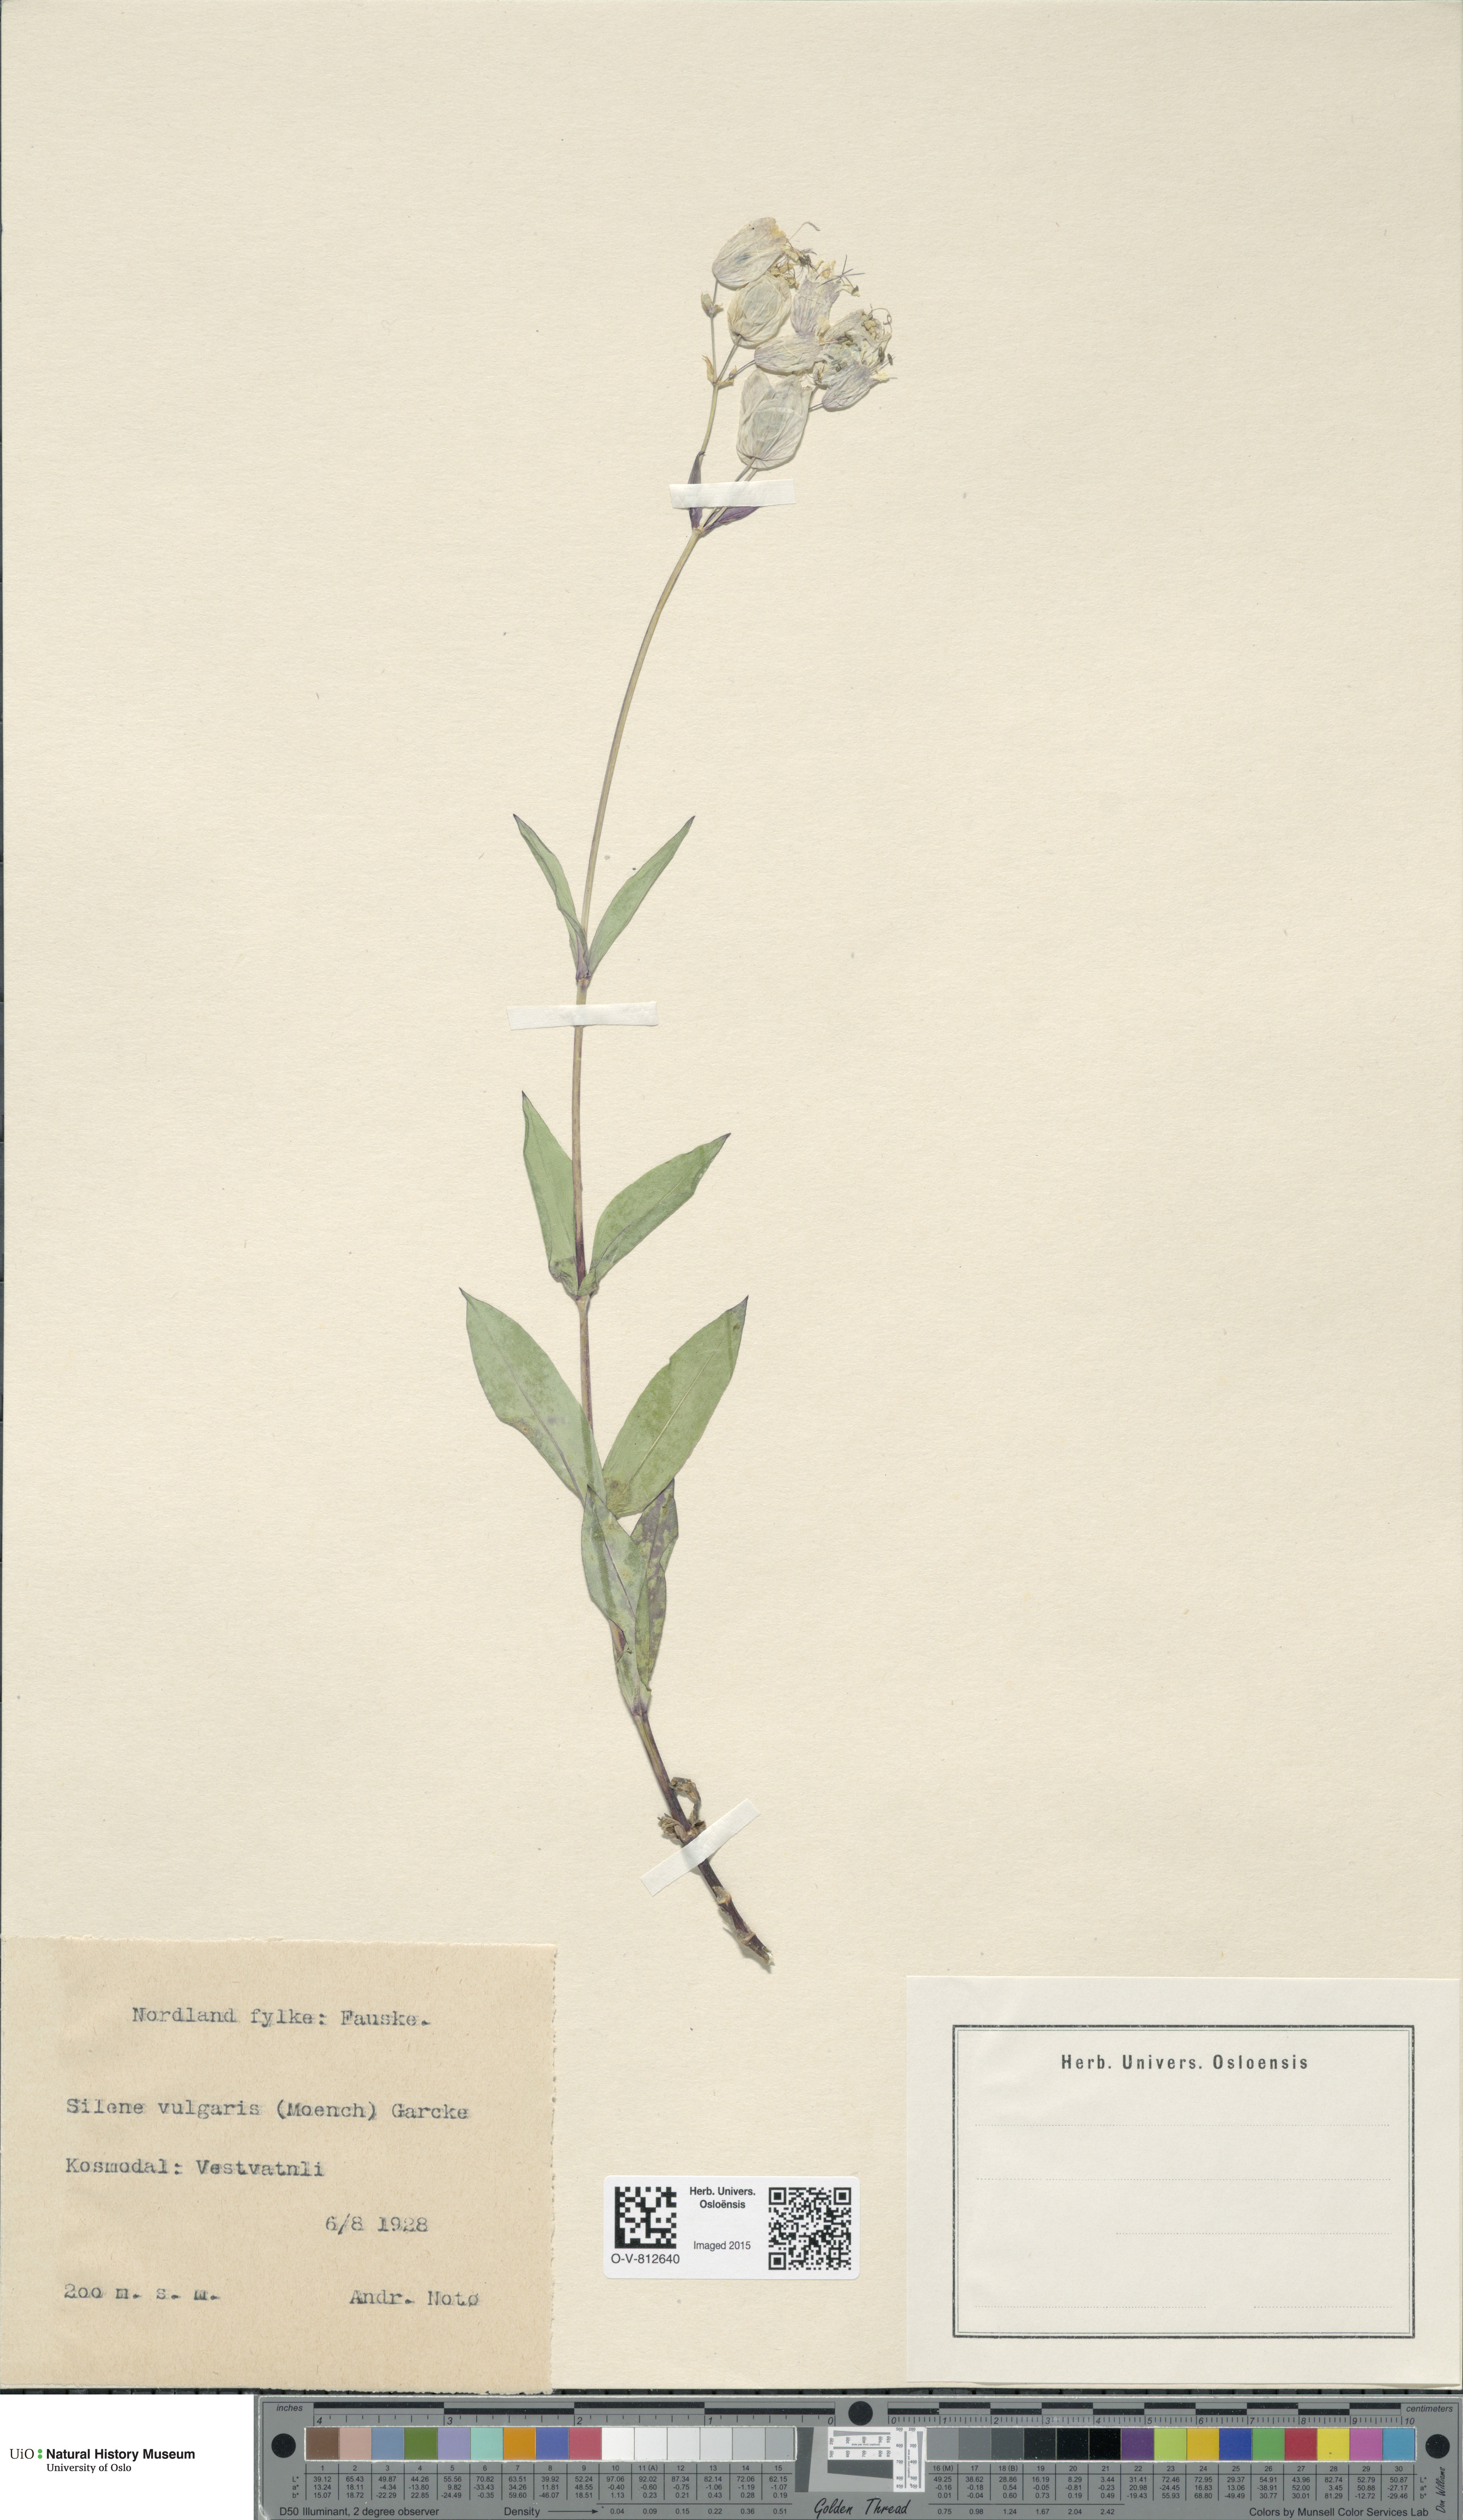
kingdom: Plantae
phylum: Tracheophyta
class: Magnoliopsida
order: Caryophyllales
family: Caryophyllaceae
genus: Silene
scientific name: Silene vulgaris
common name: Bladder campion
